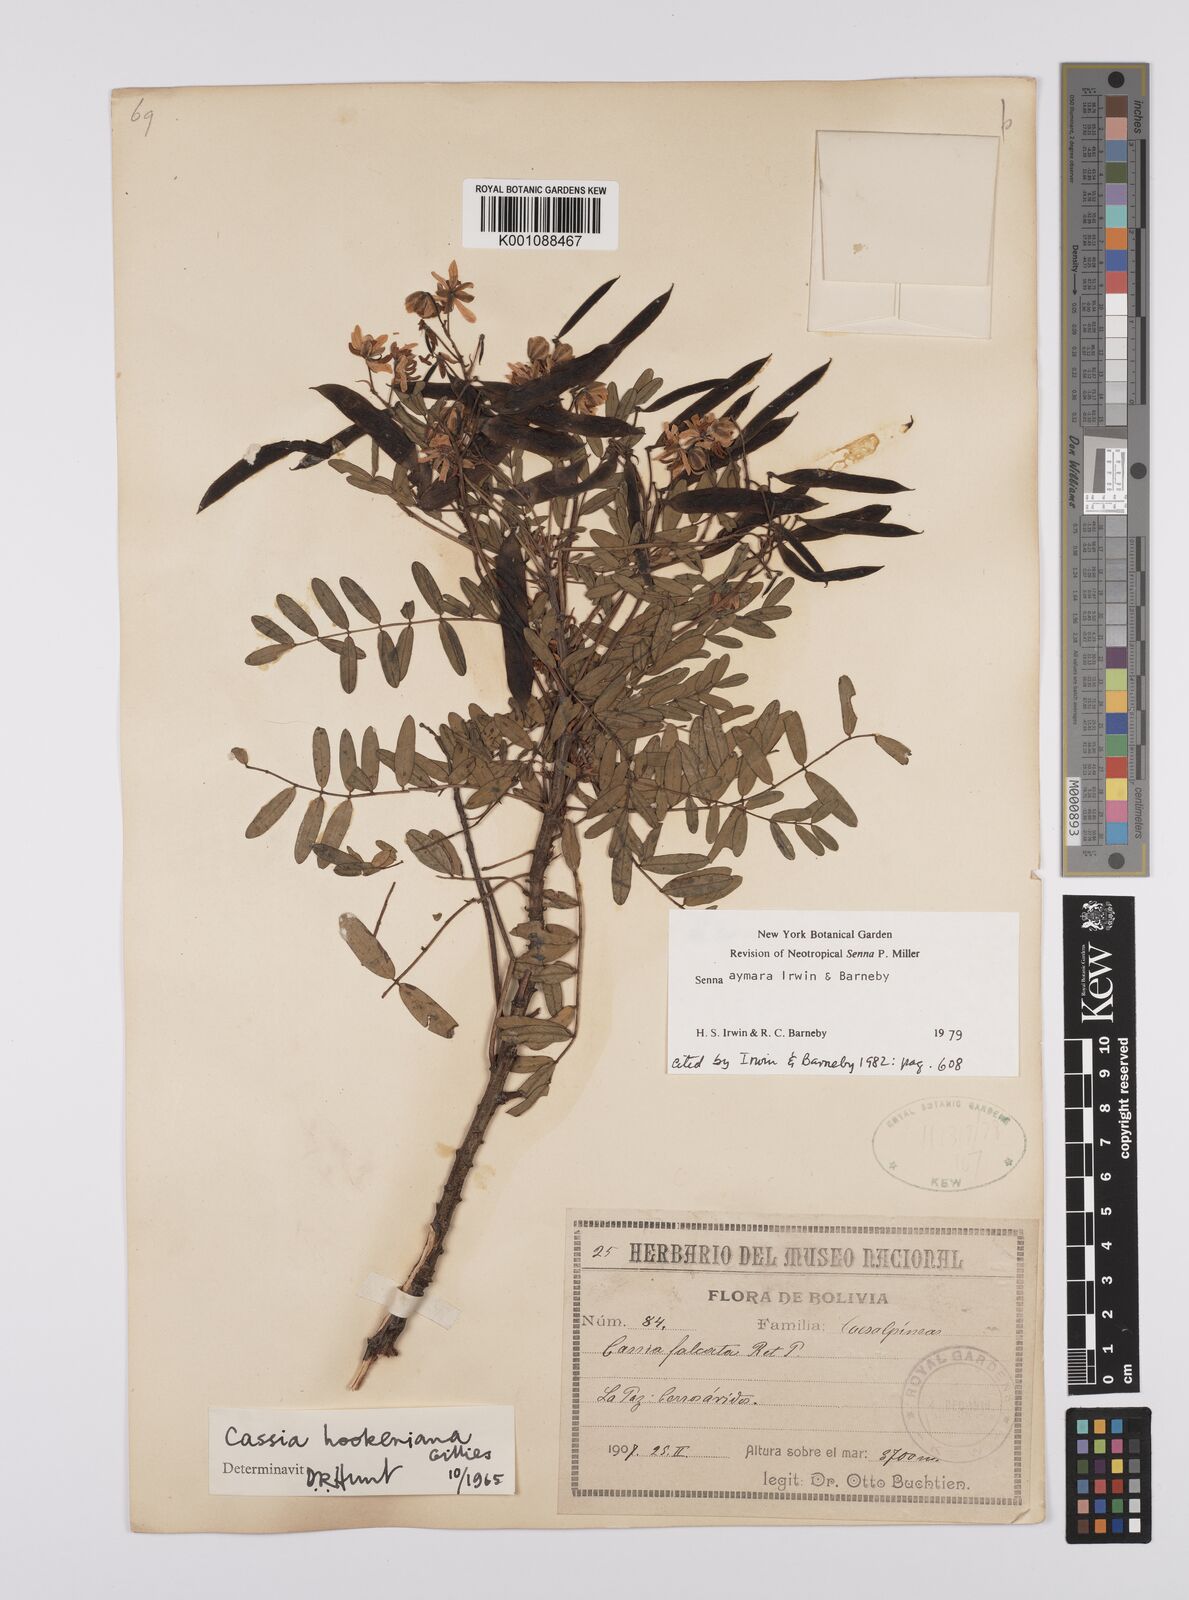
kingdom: Plantae
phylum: Tracheophyta
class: Magnoliopsida
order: Fabales
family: Fabaceae
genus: Senna
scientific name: Senna aymara
